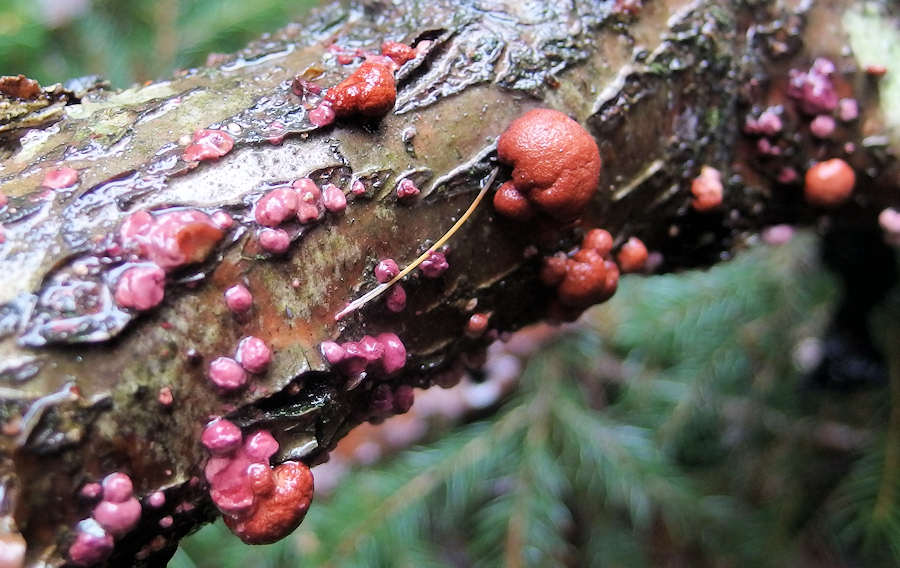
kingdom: Fungi
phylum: Ascomycota
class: Sordariomycetes
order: Hypocreales
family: Hypocreaceae
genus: Trichoderma
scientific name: Trichoderma europaeum
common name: rosabrun kødkerne
